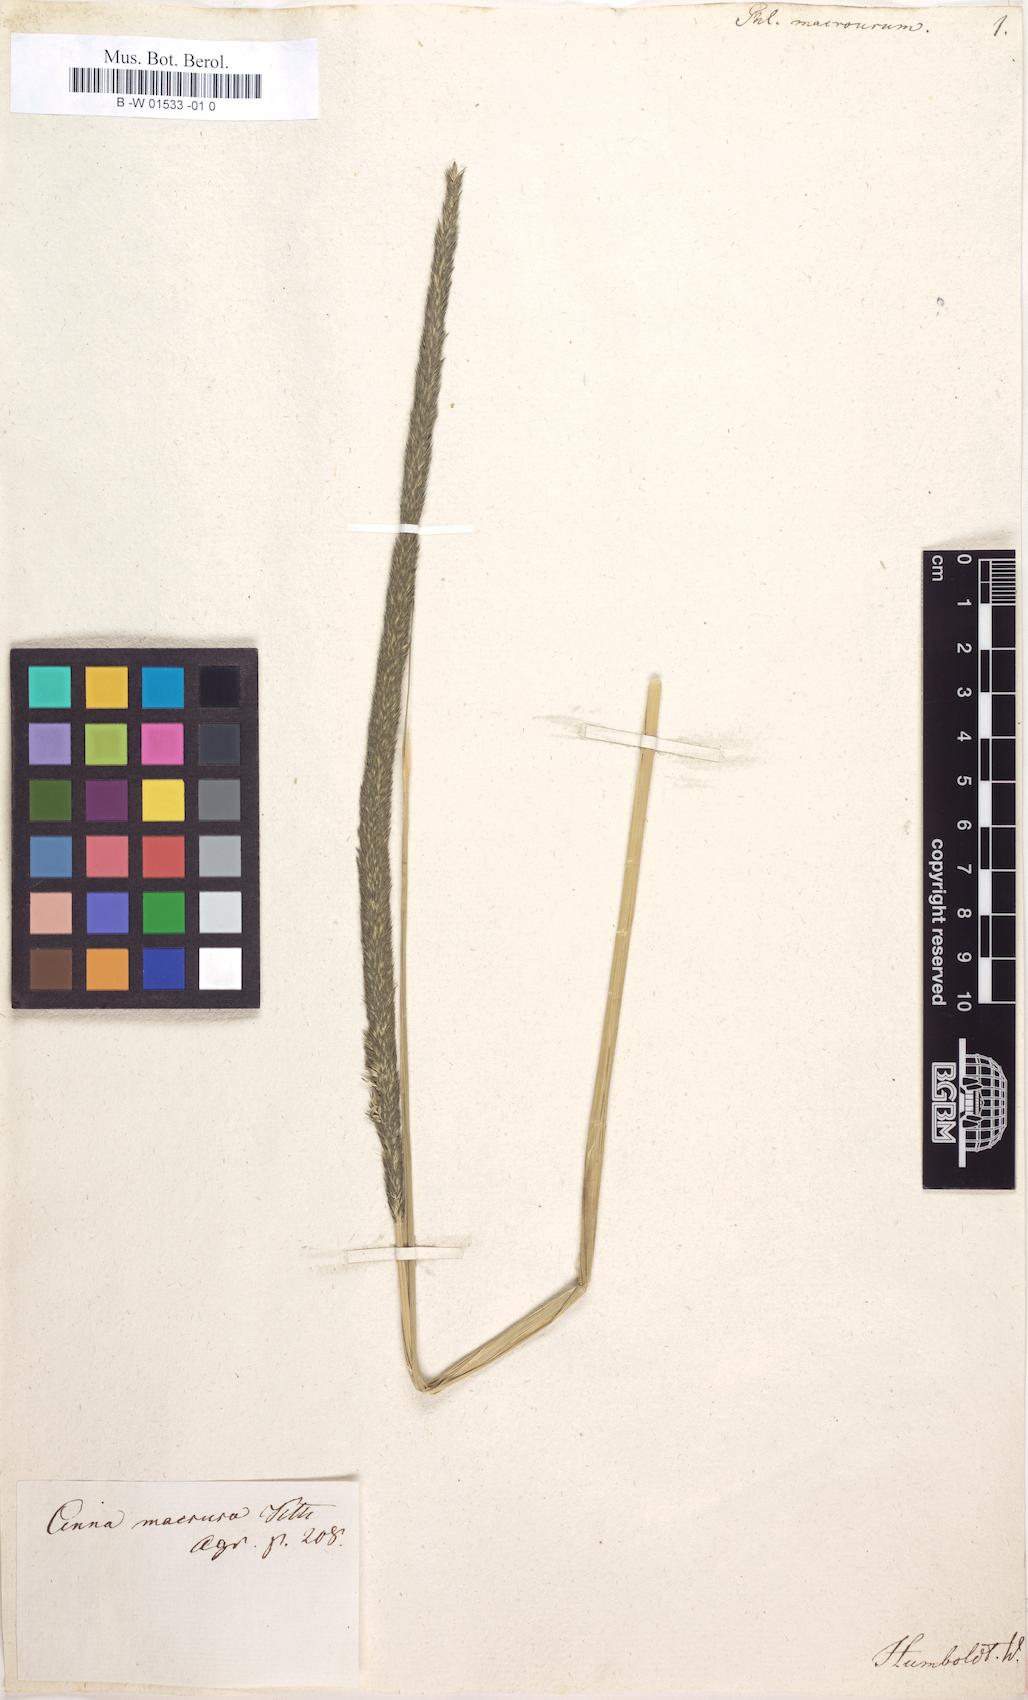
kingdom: Plantae
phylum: Tracheophyta
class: Liliopsida
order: Poales
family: Poaceae
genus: Muhlenbergia
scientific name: Muhlenbergia macroura
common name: Mexican broomroot
